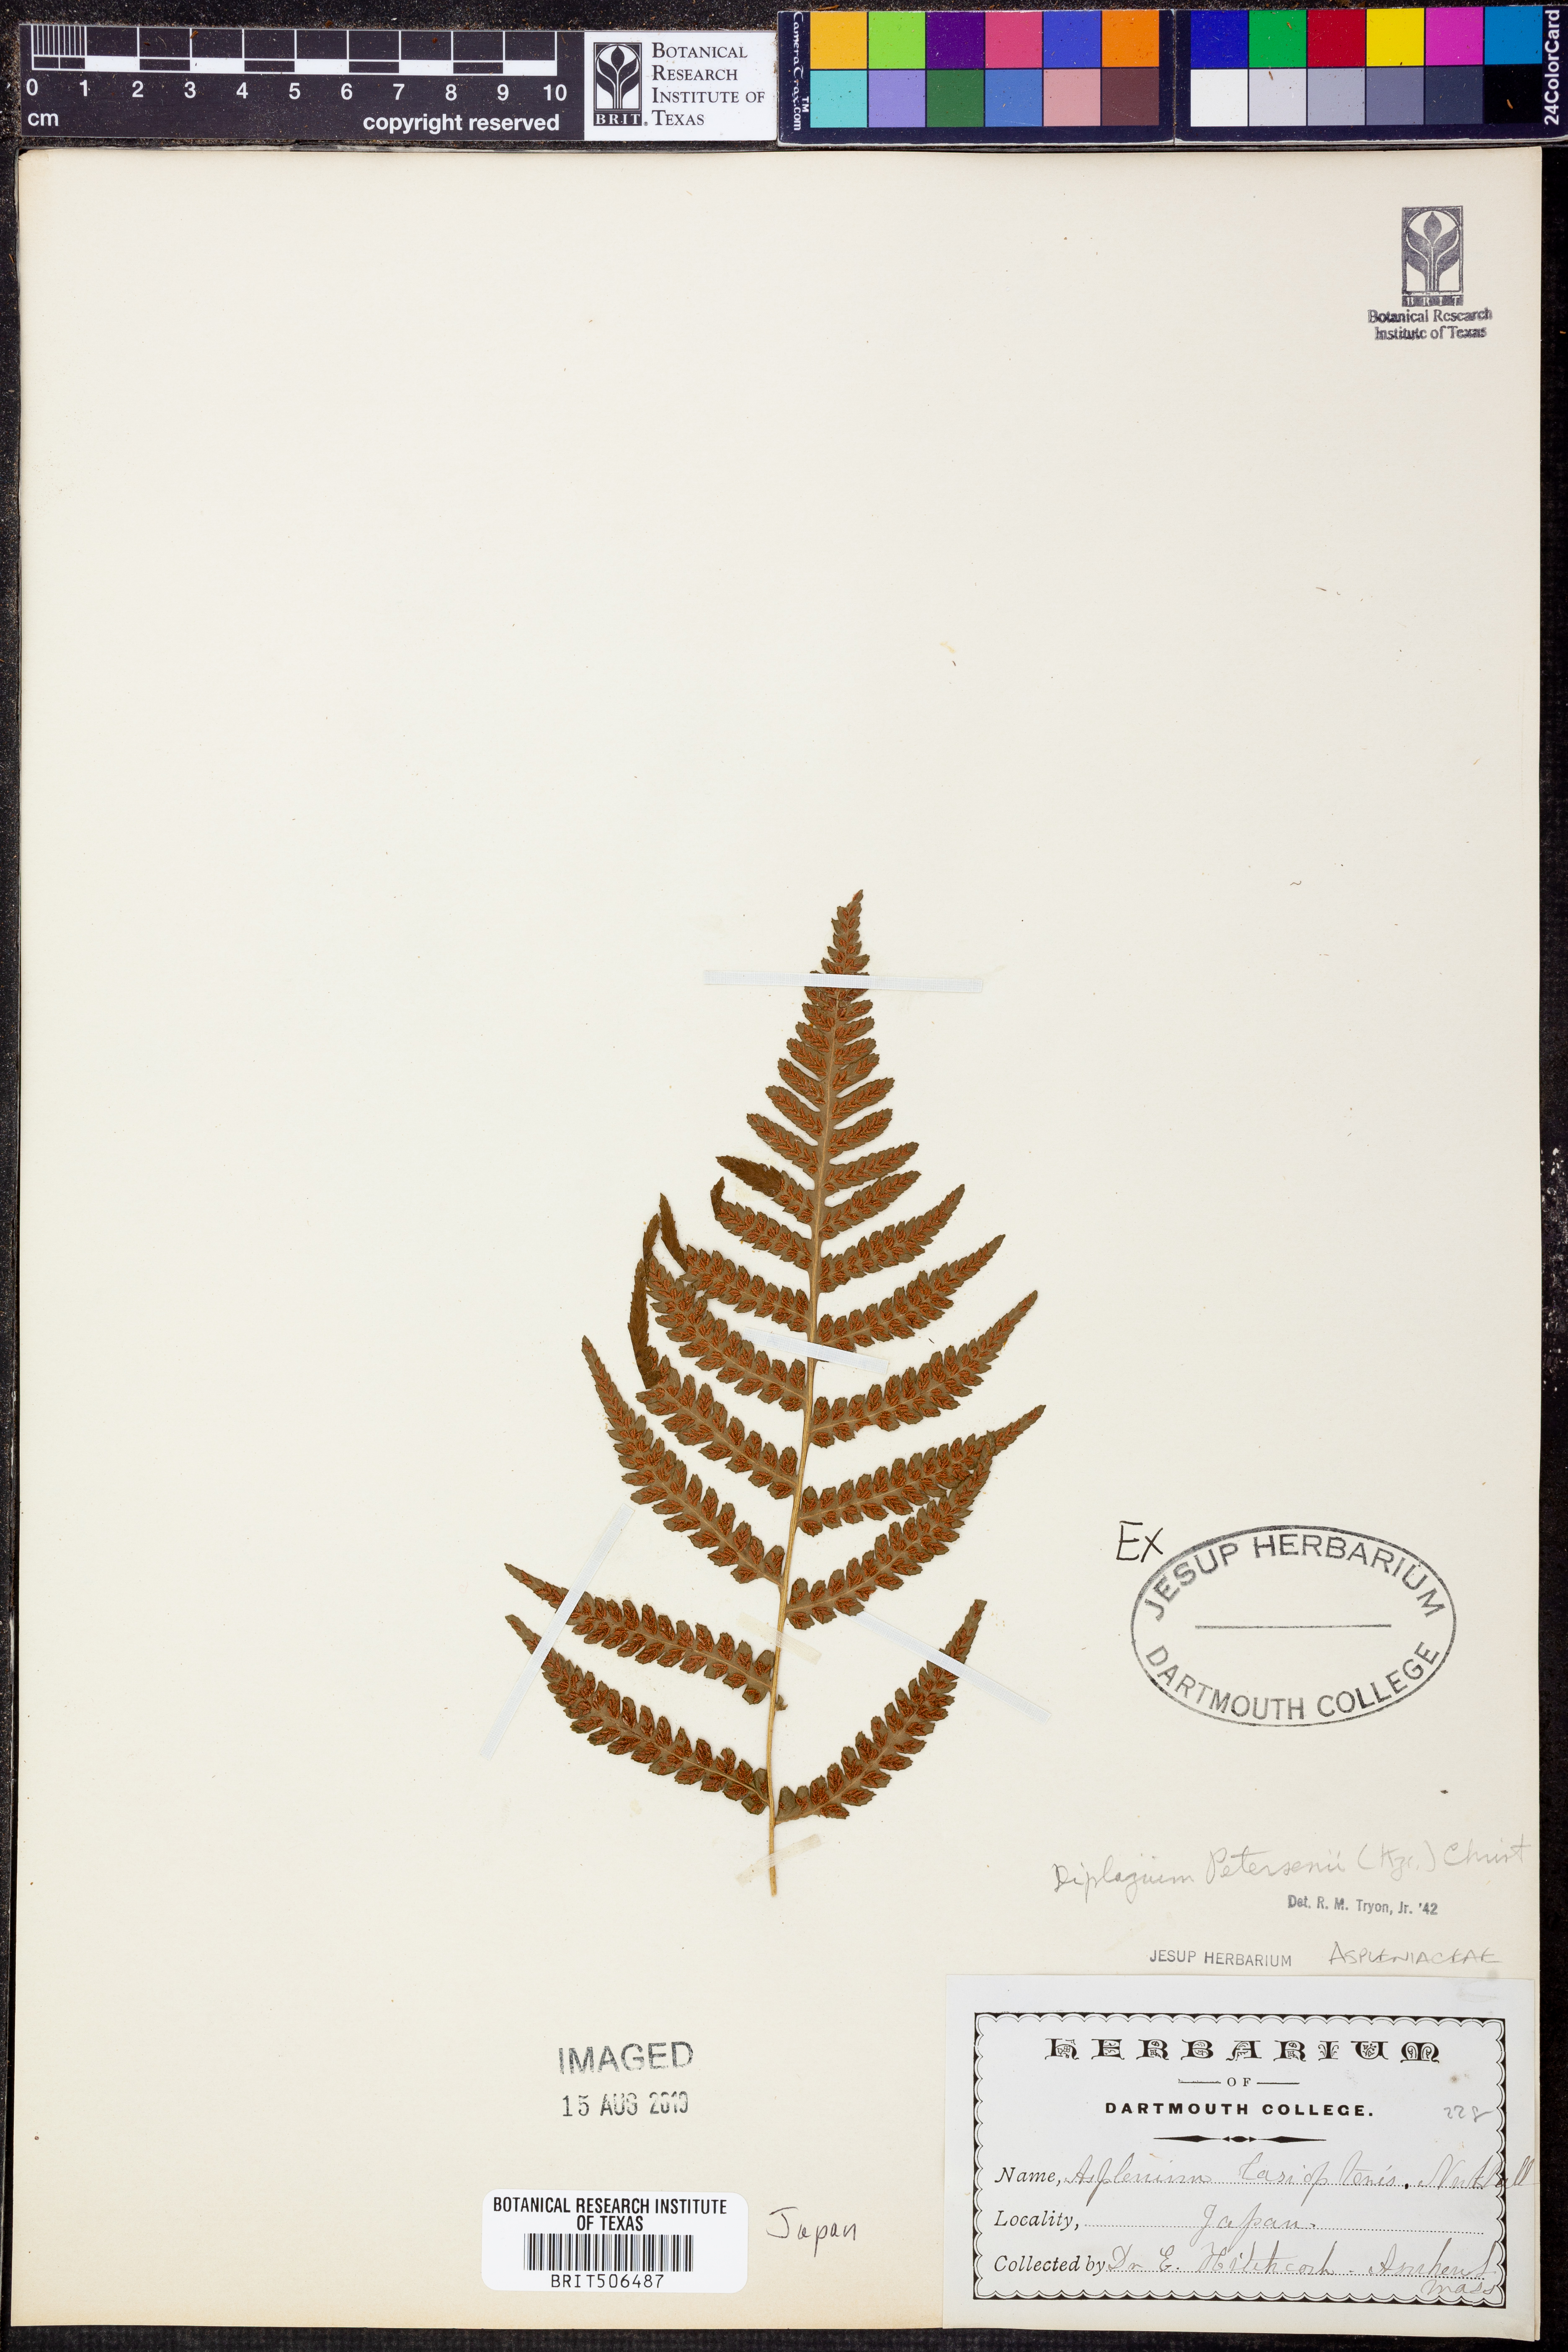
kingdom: Plantae
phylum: Tracheophyta
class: Polypodiopsida
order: Polypodiales
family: Athyriaceae
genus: Deparia
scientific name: Deparia petersenii
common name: Japanese false spleenwort
